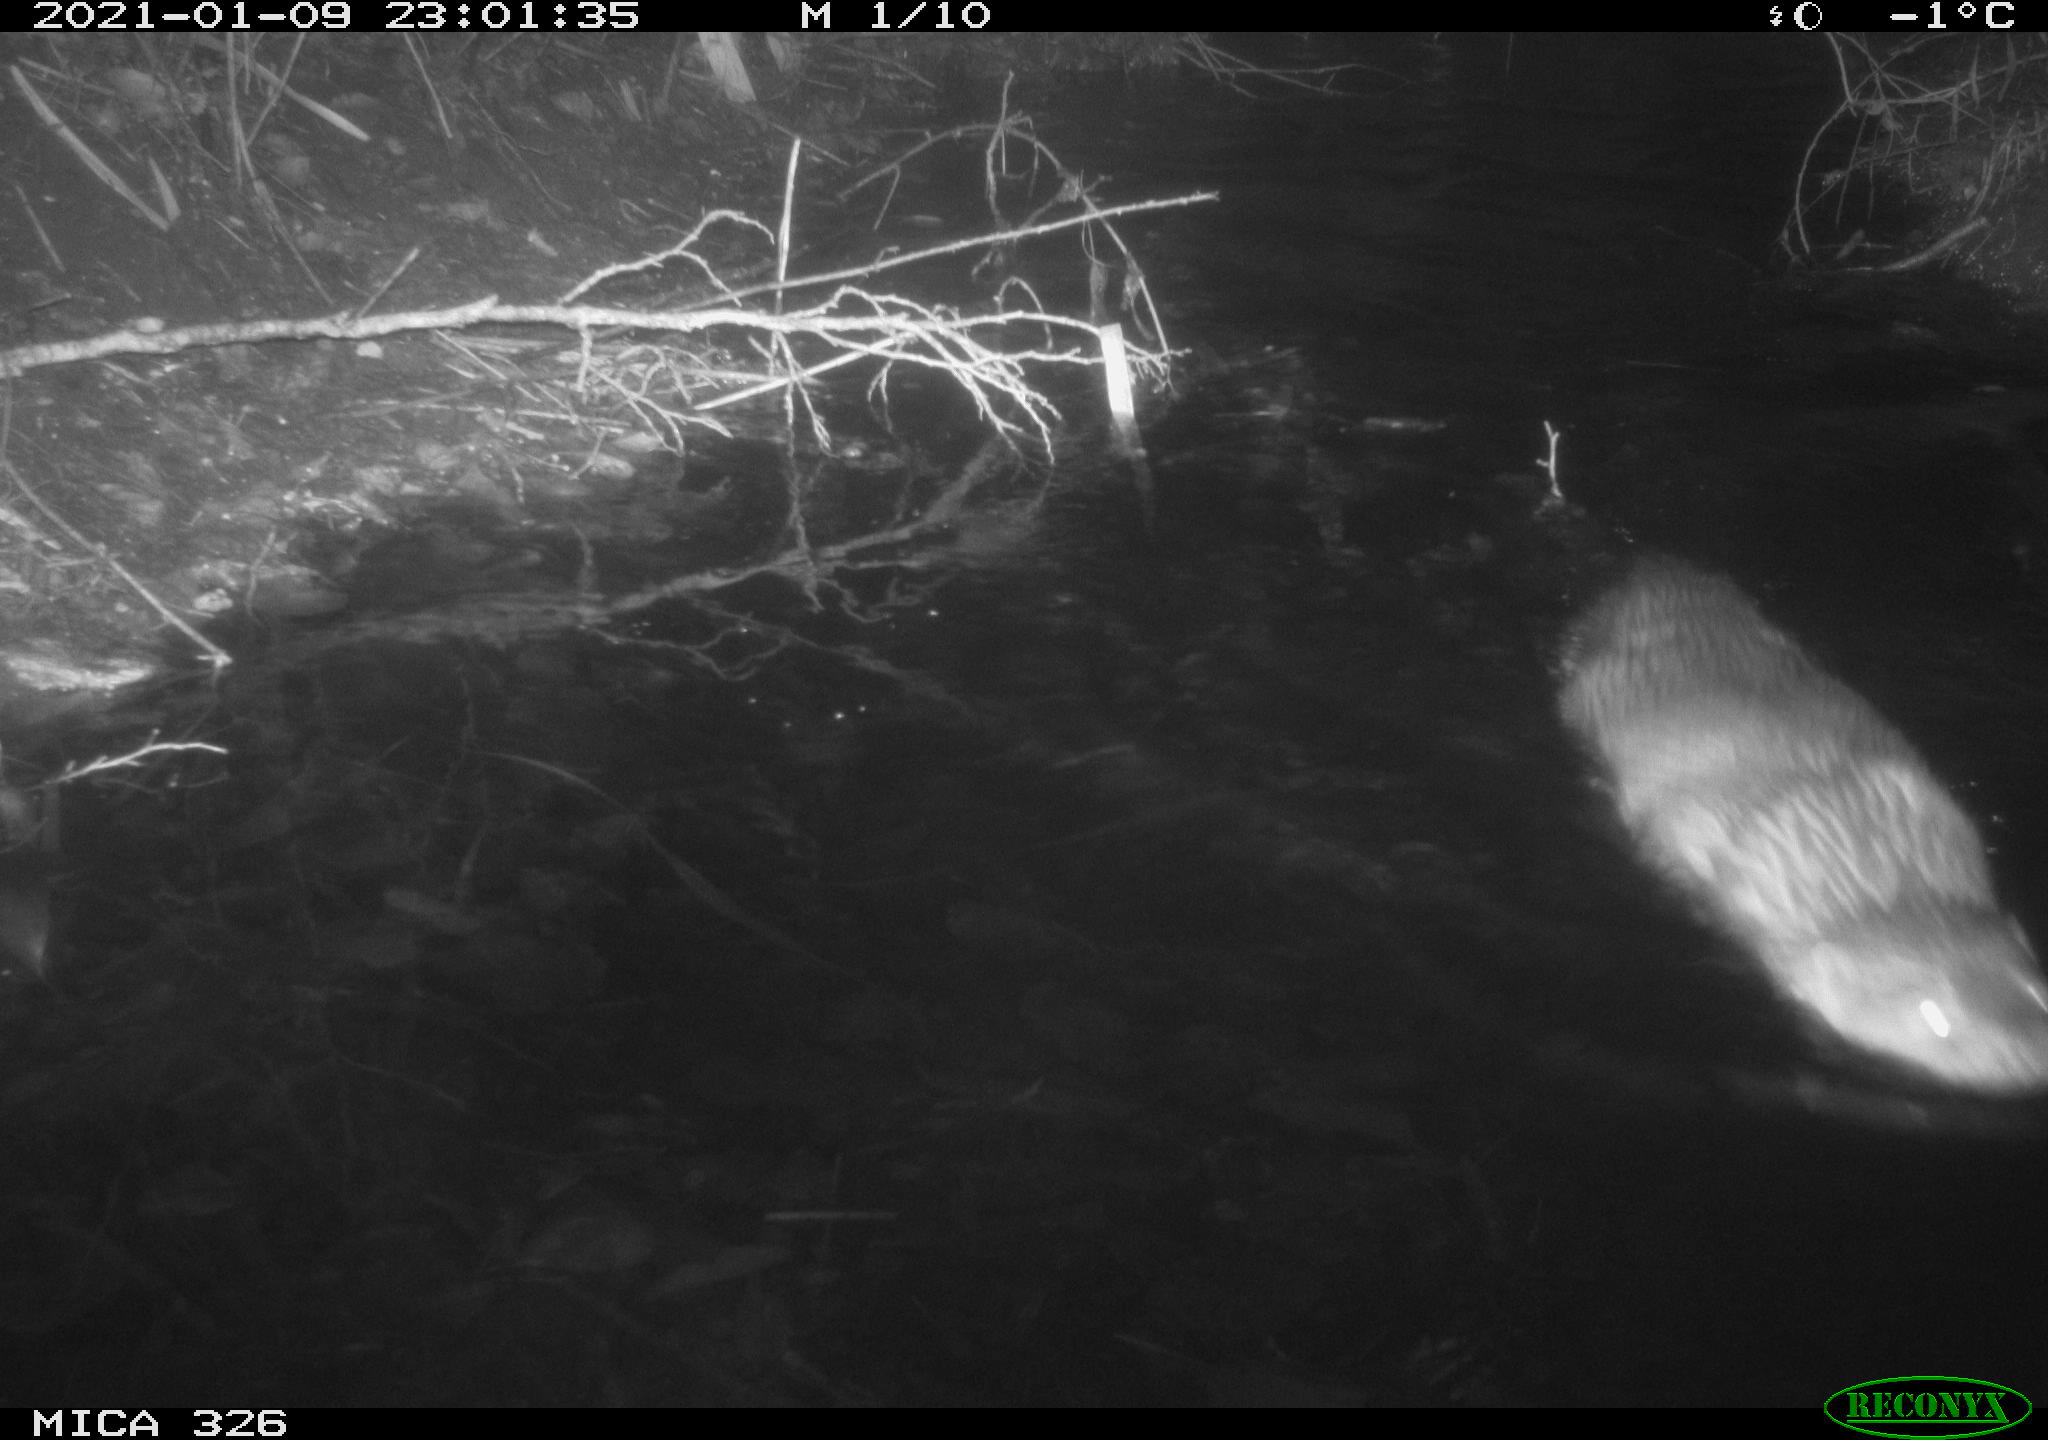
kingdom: Animalia
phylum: Chordata
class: Mammalia
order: Carnivora
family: Mustelidae
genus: Lutra
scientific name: Lutra lutra
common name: European otter
